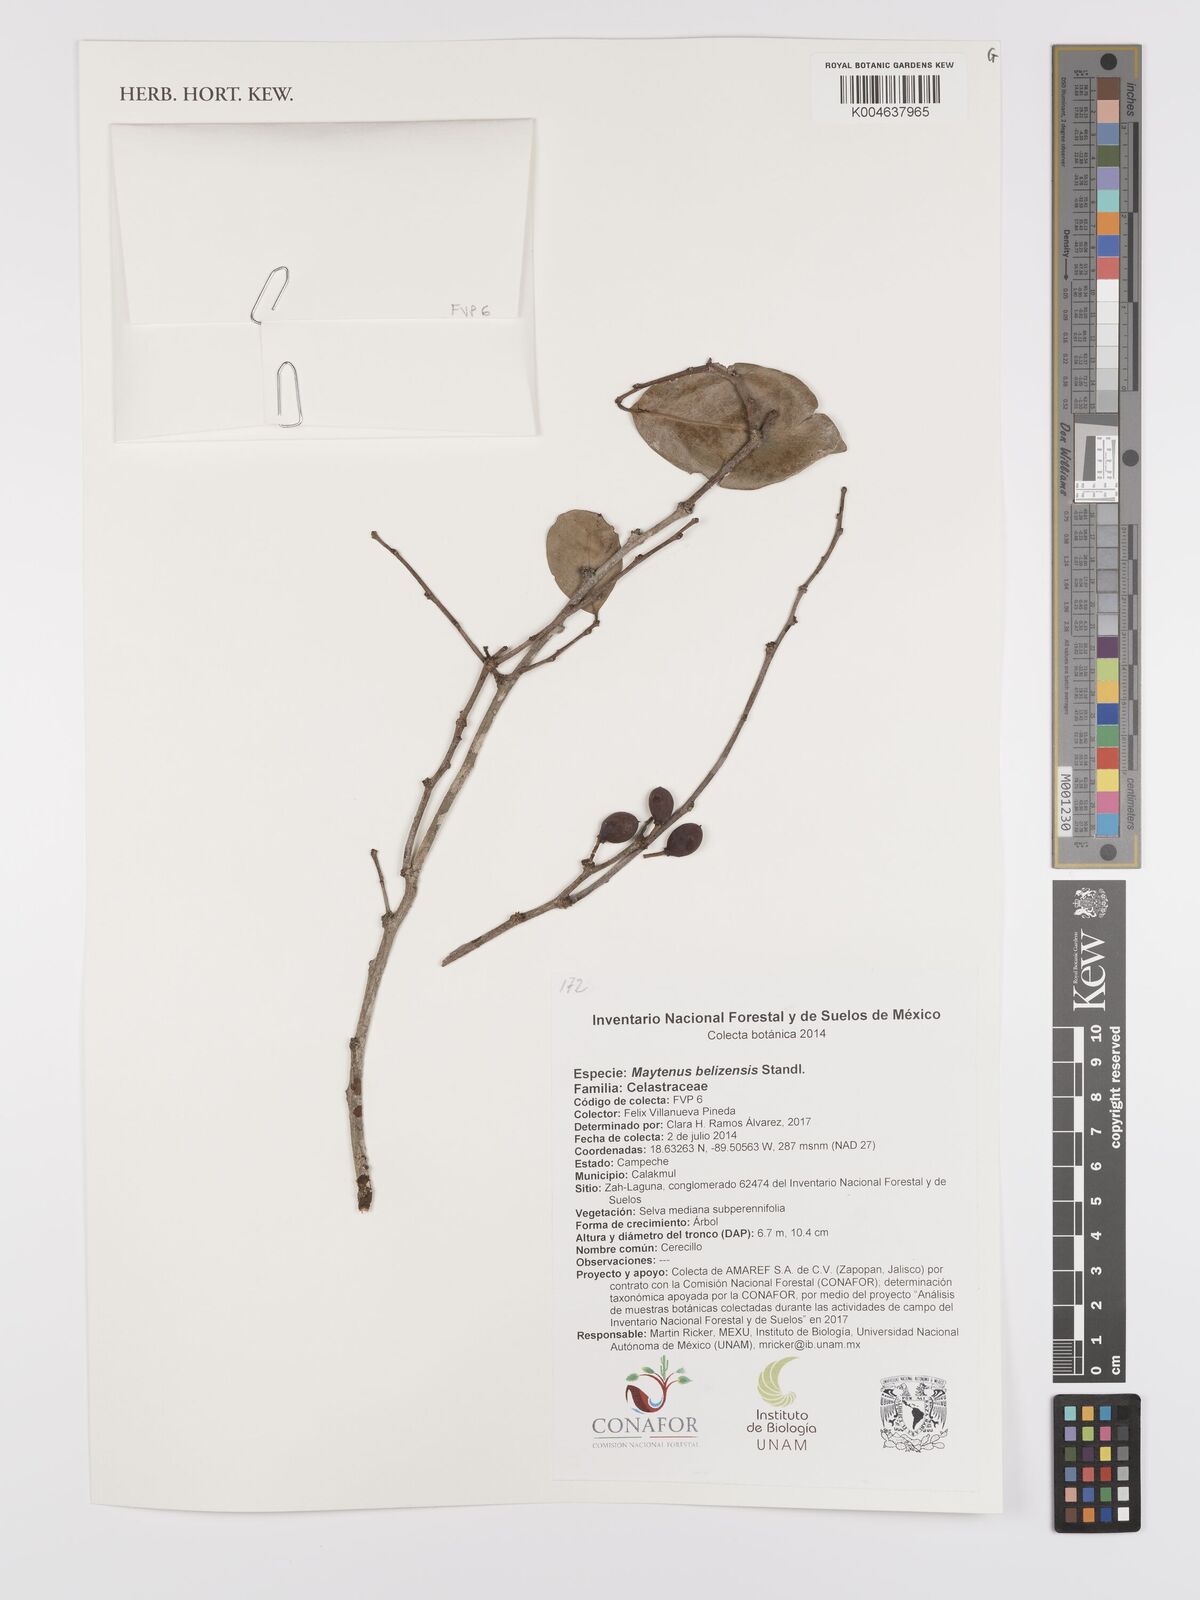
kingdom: Plantae
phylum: Tracheophyta
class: Magnoliopsida
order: Celastrales
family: Celastraceae
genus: Monteverdia
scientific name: Monteverdia belizensis
